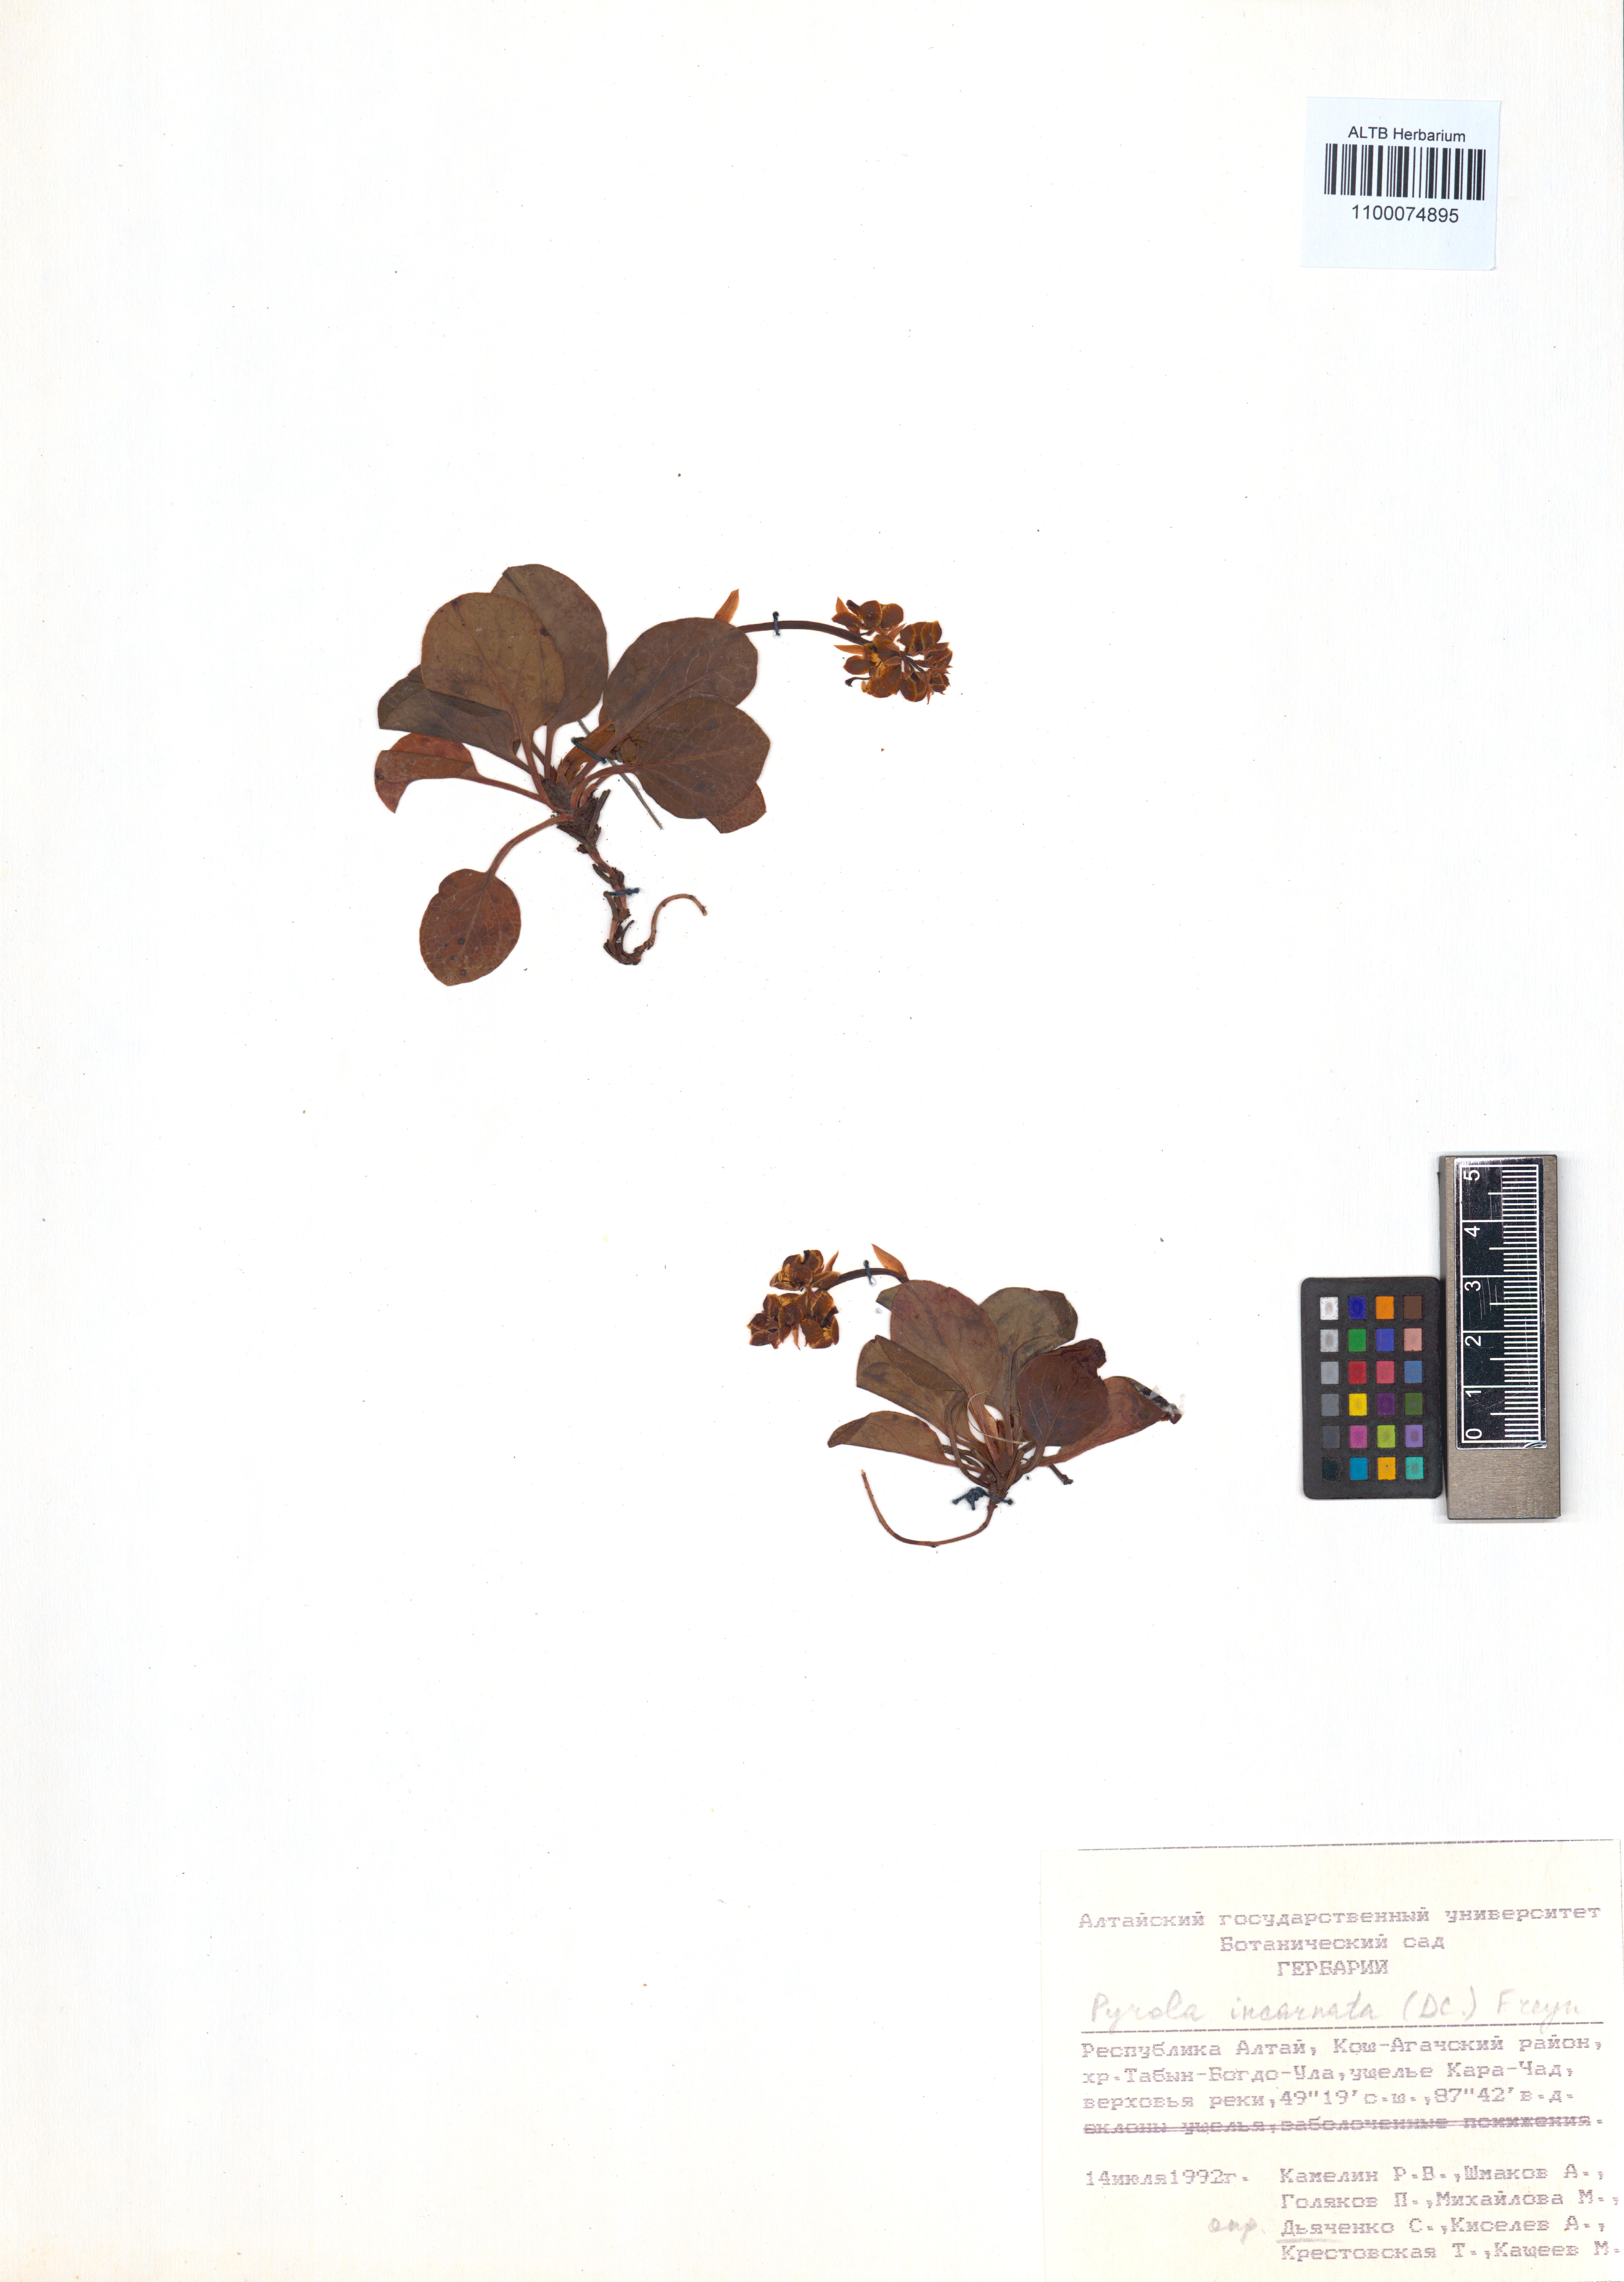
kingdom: Plantae
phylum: Tracheophyta
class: Magnoliopsida
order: Ericales
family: Ericaceae
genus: Pyrola
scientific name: Pyrola asarifolia
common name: Bog wintergreen
